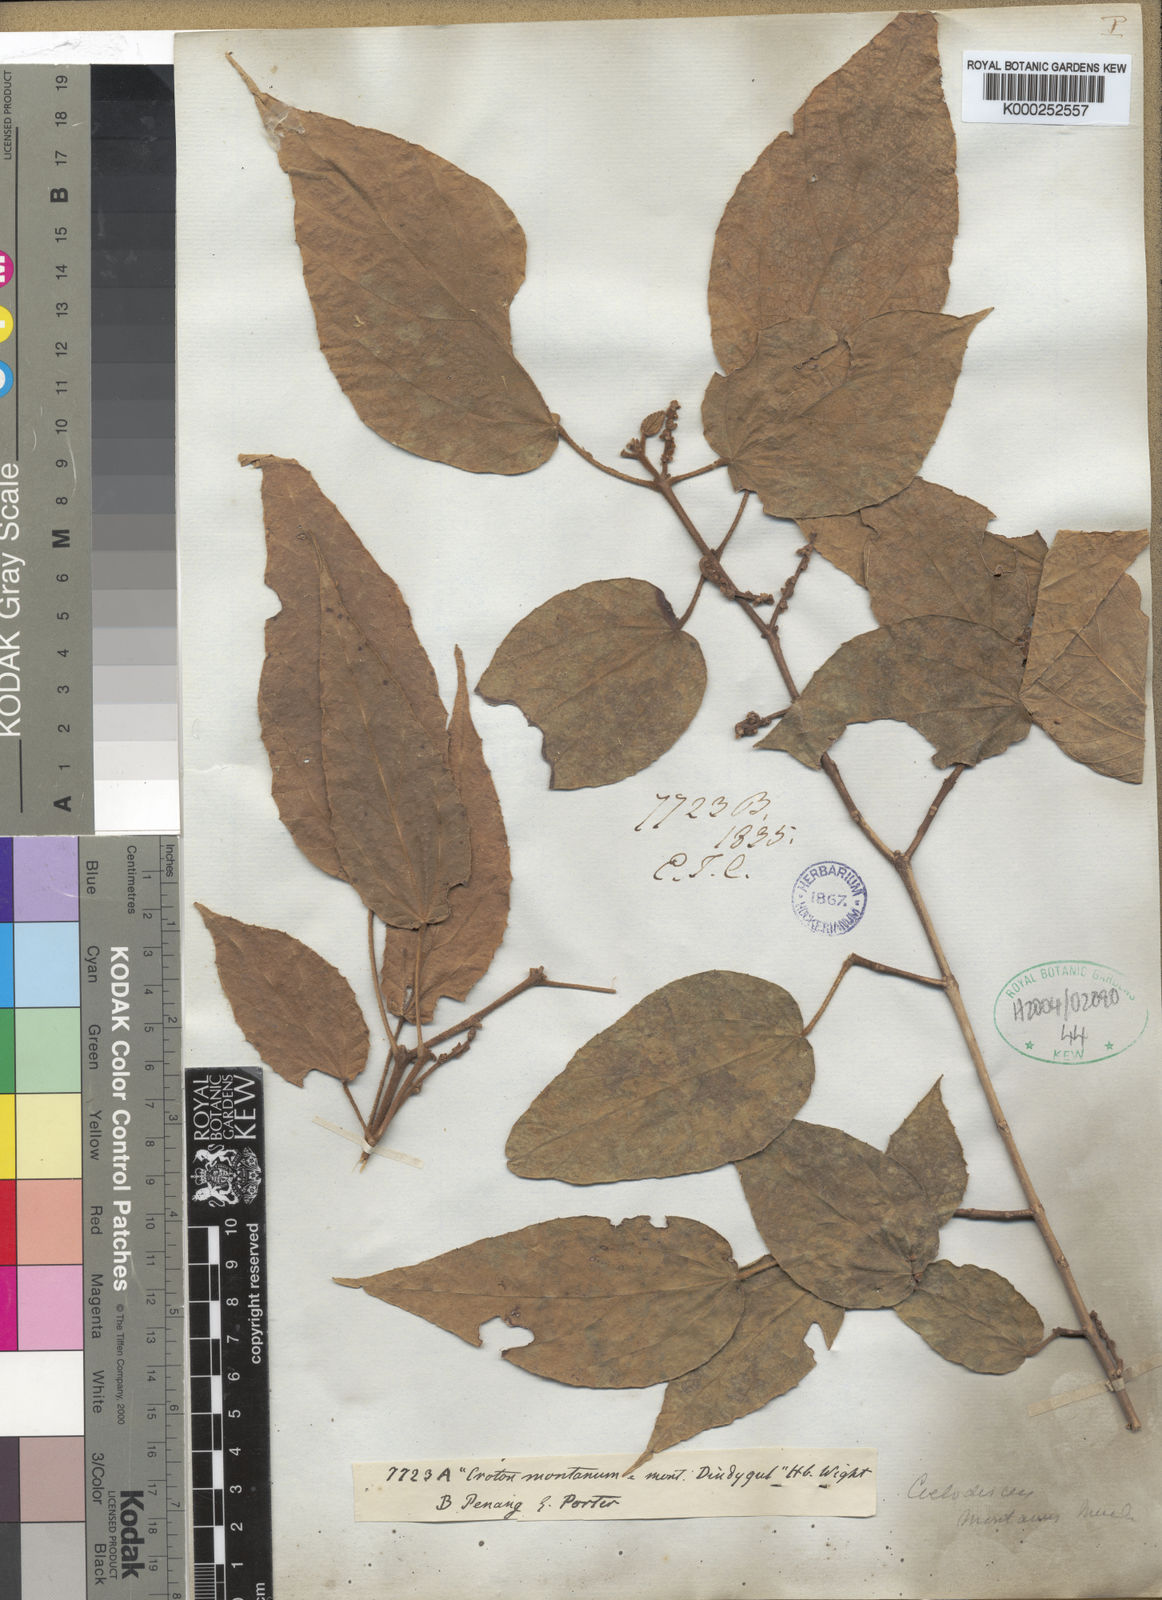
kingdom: Plantae
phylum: Tracheophyta
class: Magnoliopsida
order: Malpighiales
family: Euphorbiaceae
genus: Mallotus
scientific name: Mallotus
